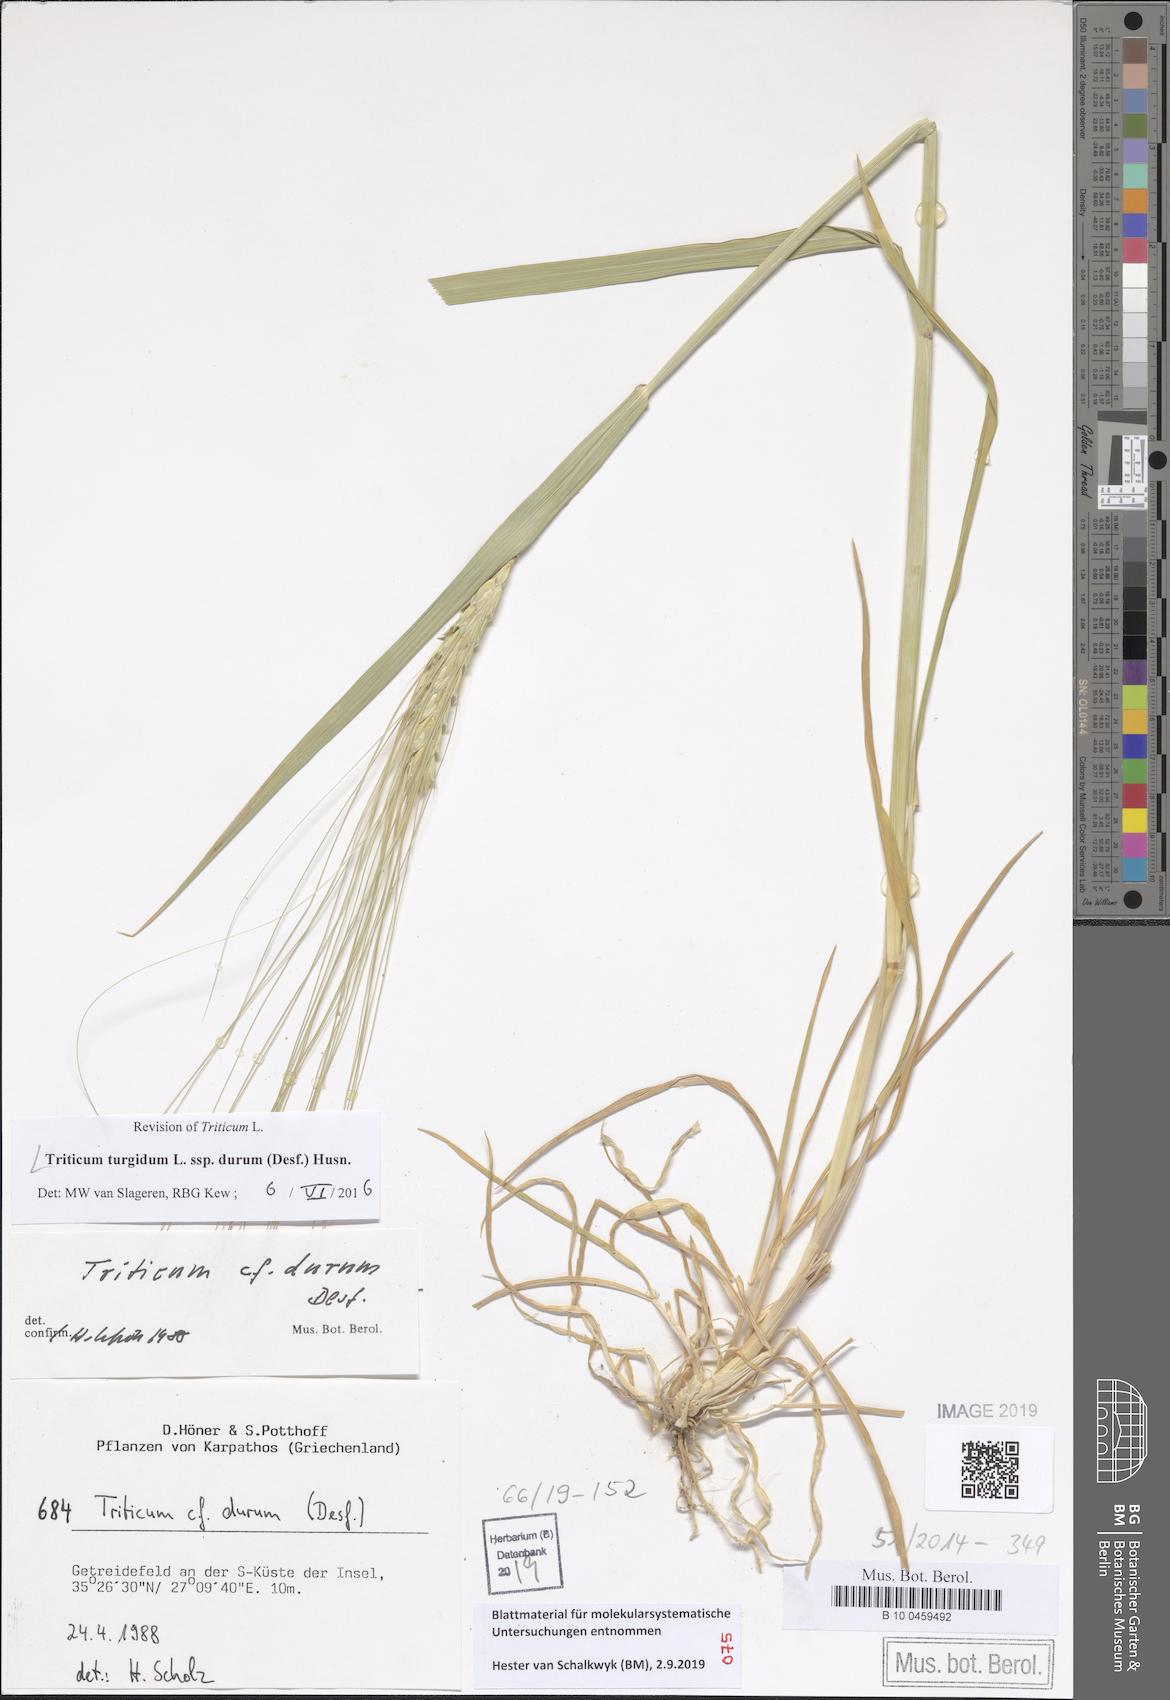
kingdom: Plantae
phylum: Tracheophyta
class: Liliopsida
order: Poales
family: Poaceae
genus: Triticum
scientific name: Triticum turgidum
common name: Rivet wheat
